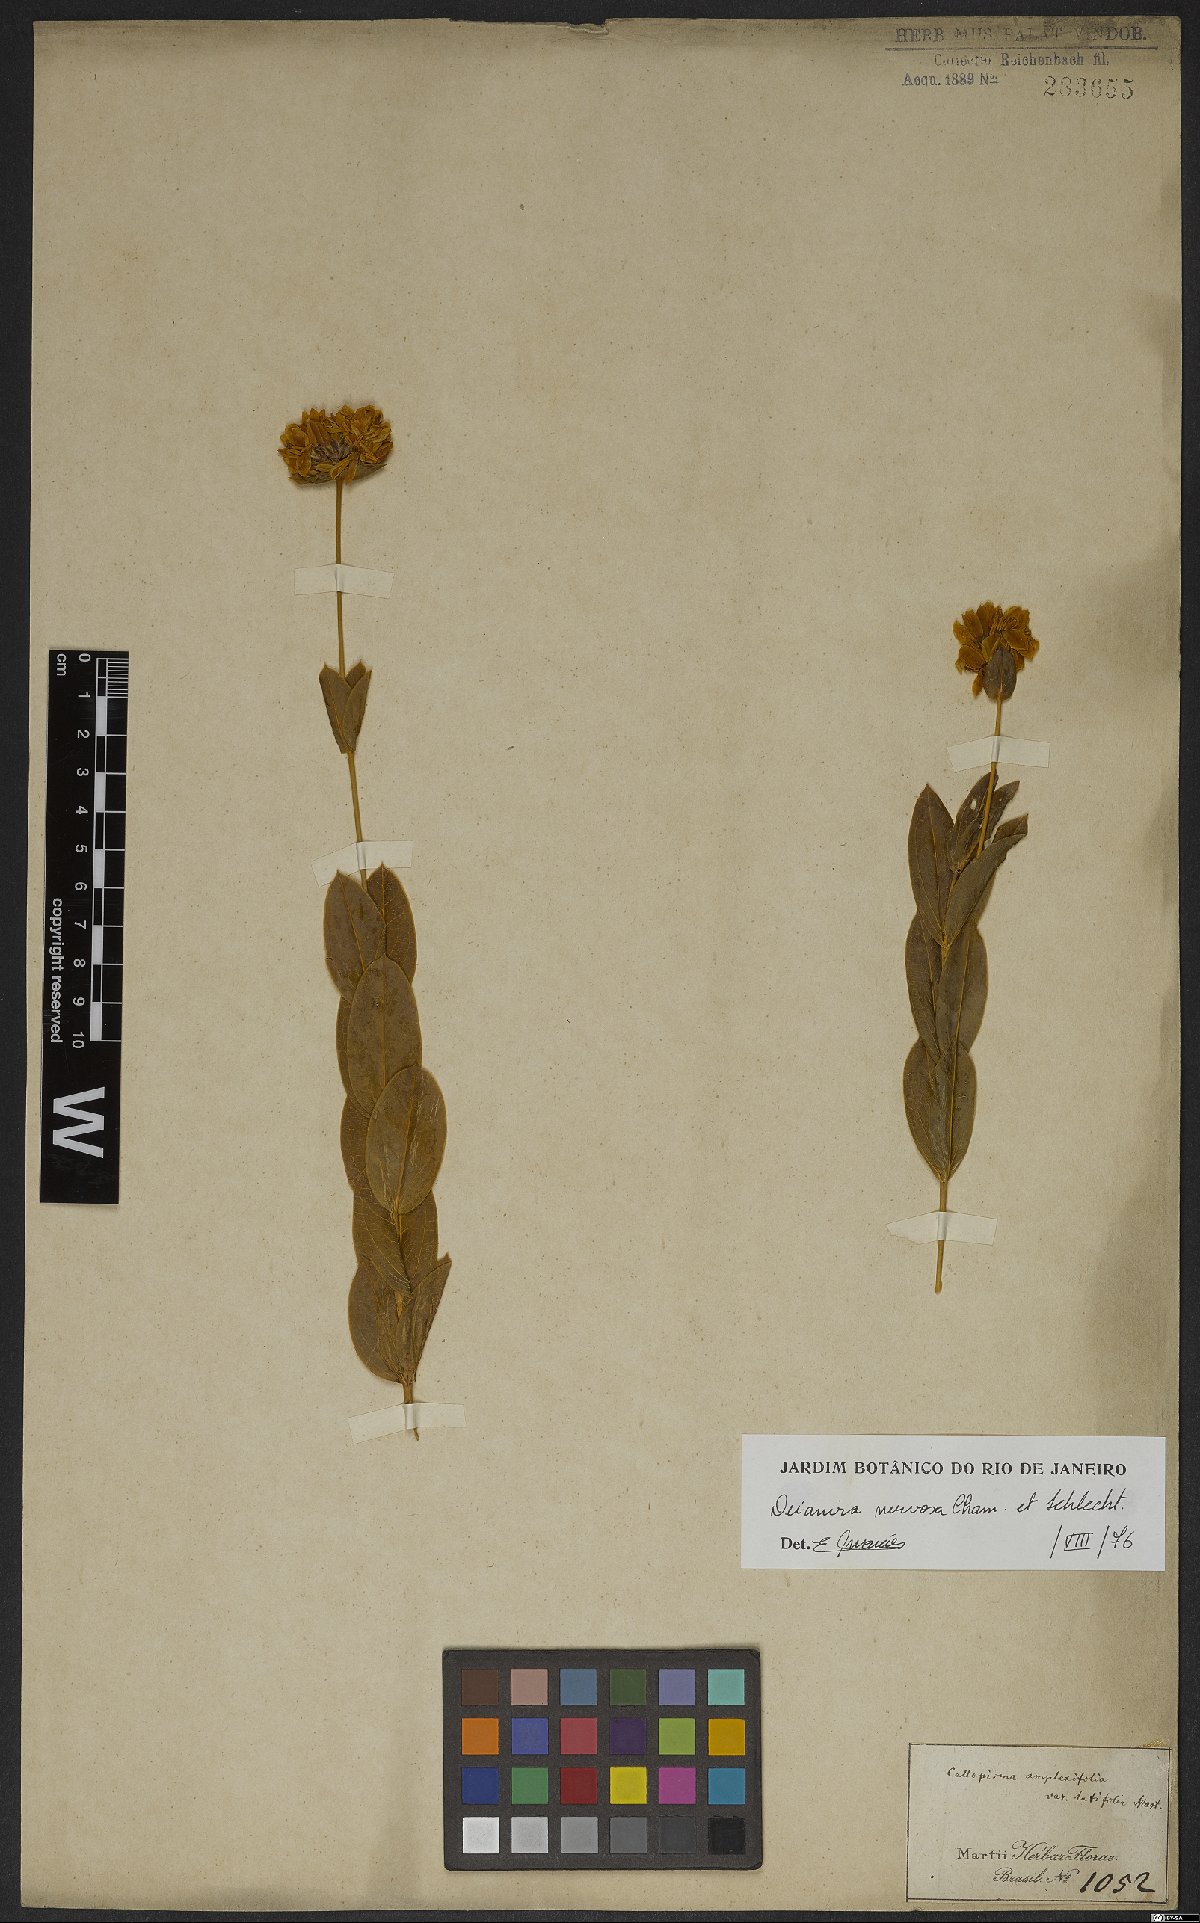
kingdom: Plantae
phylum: Tracheophyta
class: Magnoliopsida
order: Gentianales
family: Gentianaceae
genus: Deianira
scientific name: Deianira nervosa
